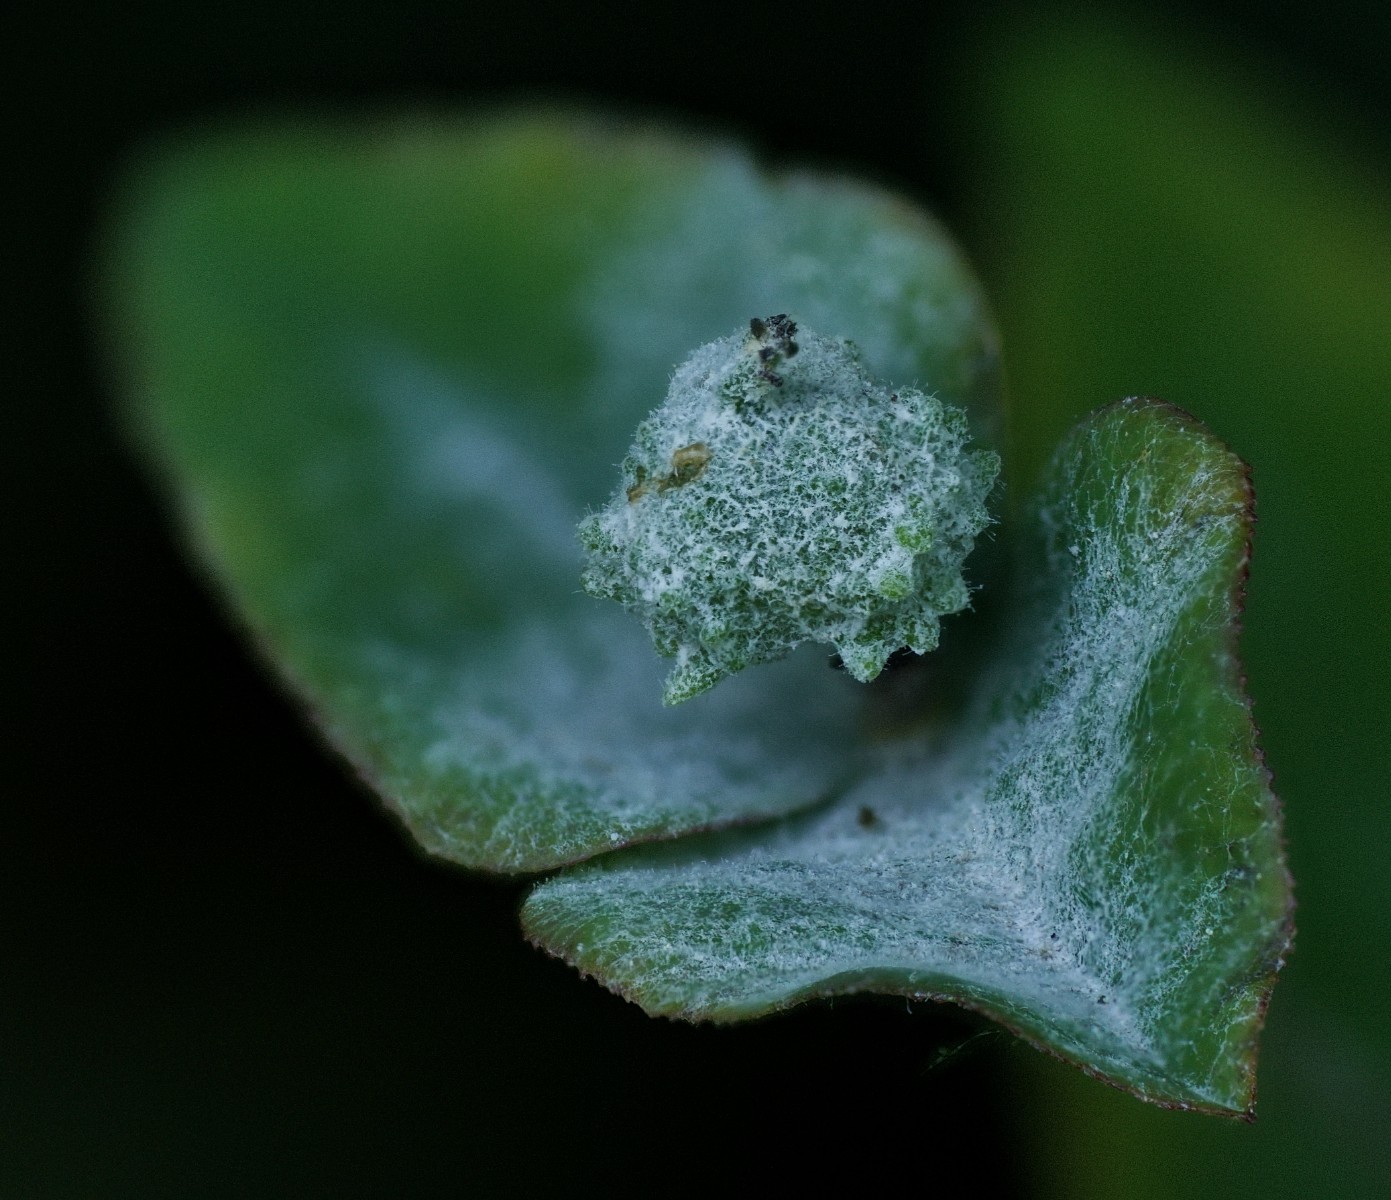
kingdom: Fungi
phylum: Ascomycota
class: Leotiomycetes
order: Helotiales
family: Erysiphaceae
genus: Podosphaera
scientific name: Podosphaera euphorbiae
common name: Eurasian poinsettia powdery mildew
